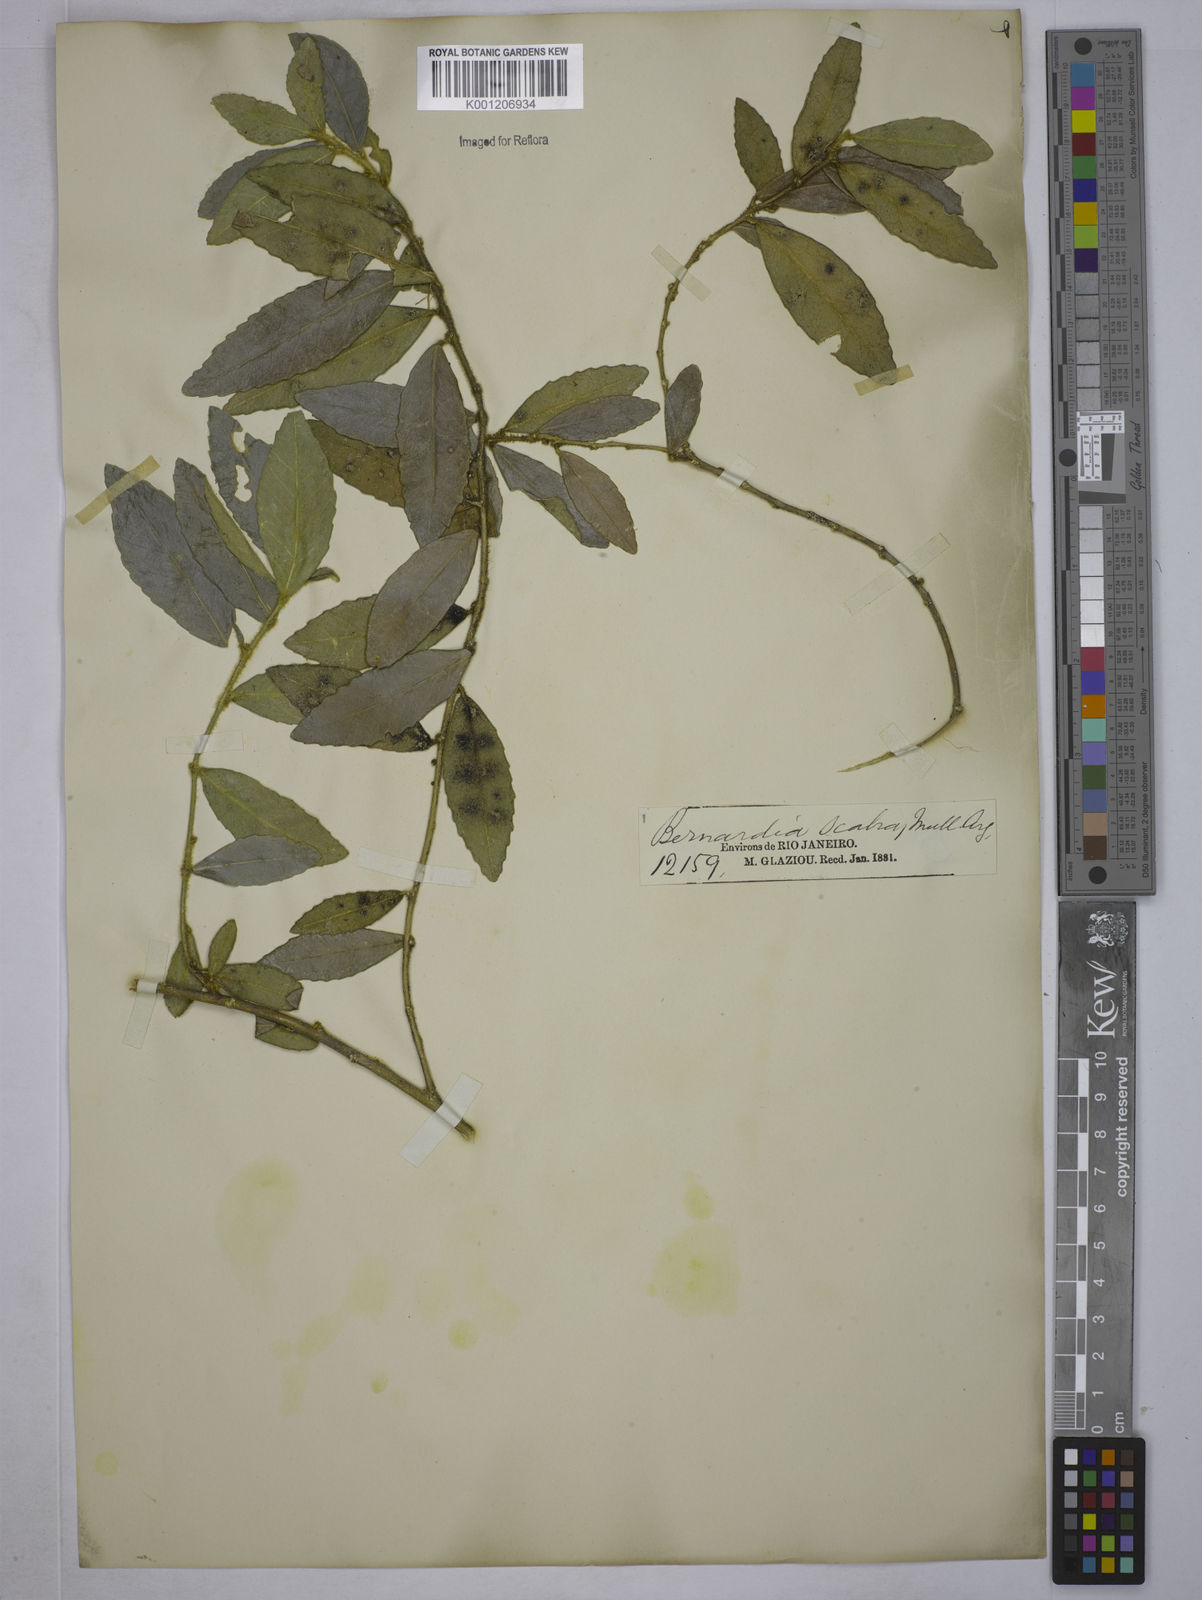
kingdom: Plantae
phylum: Tracheophyta
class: Magnoliopsida
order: Malpighiales
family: Euphorbiaceae
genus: Bernardia
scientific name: Bernardia axillaris
